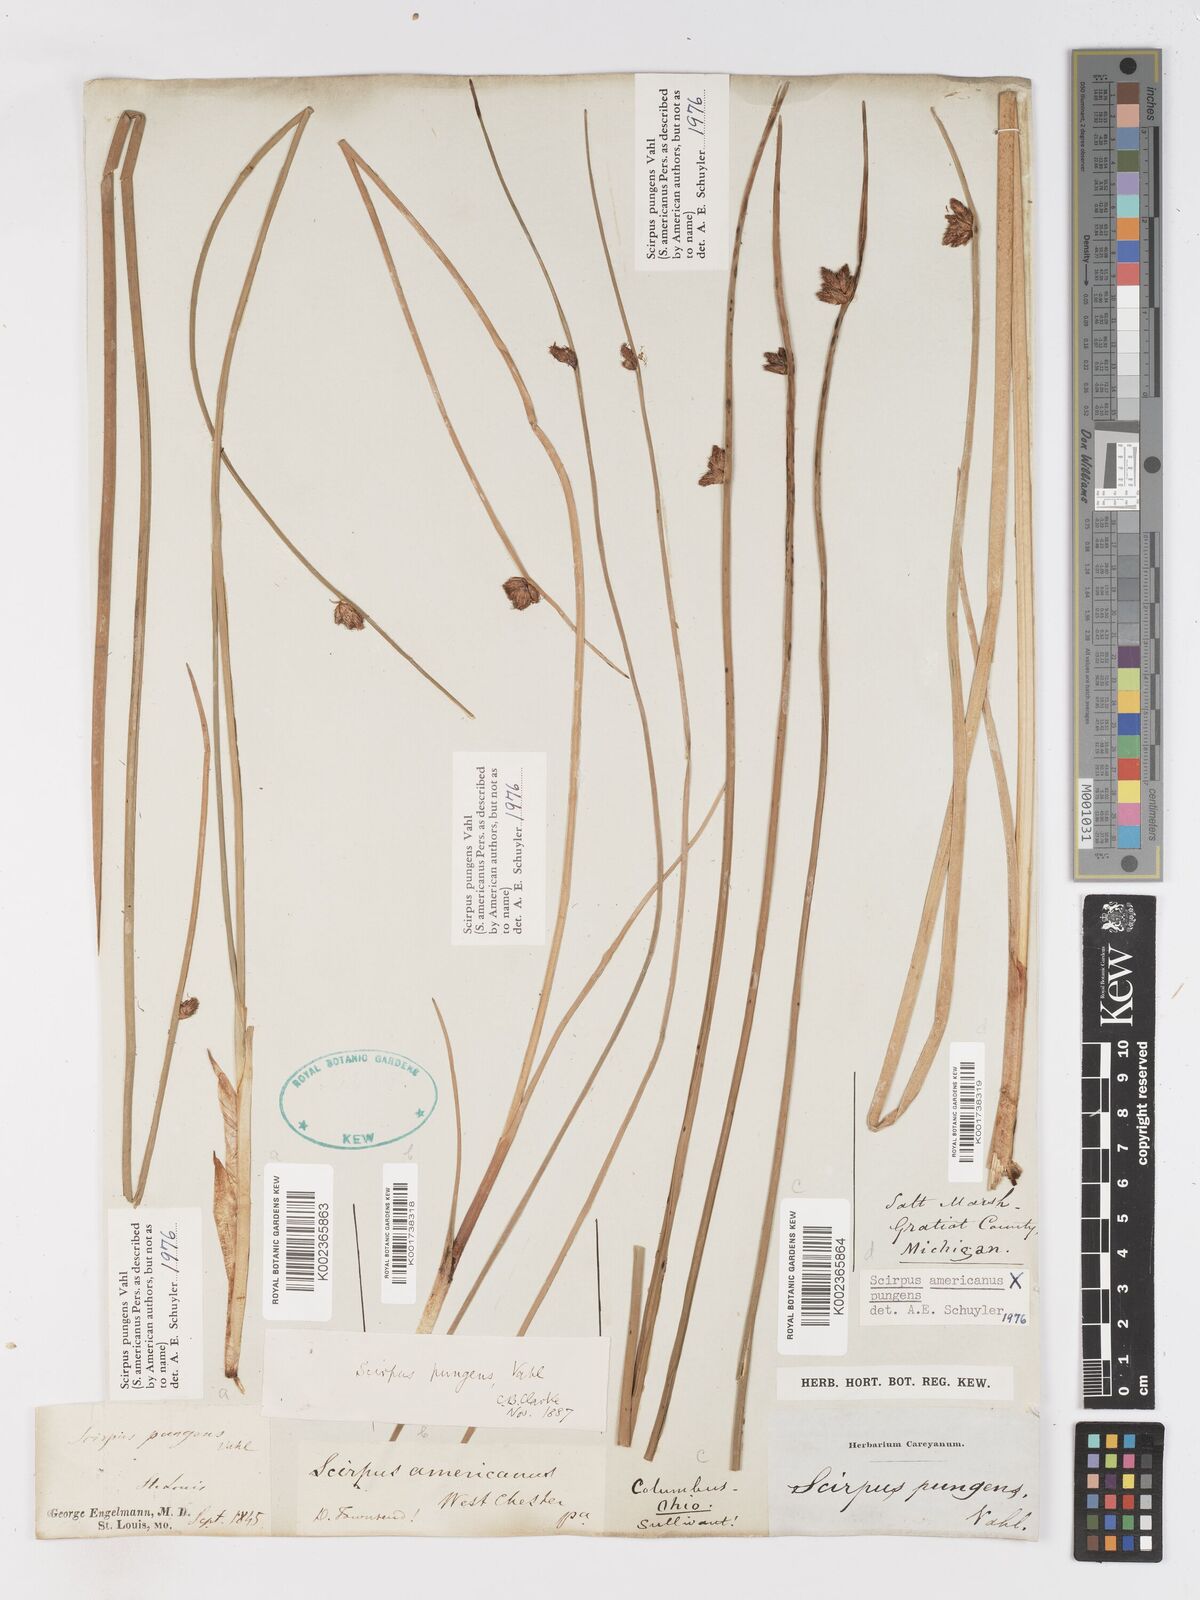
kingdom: Plantae
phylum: Tracheophyta
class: Liliopsida
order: Poales
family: Cyperaceae
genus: Schoenoplectus
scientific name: Schoenoplectus pungens
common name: Sharp club-rush
